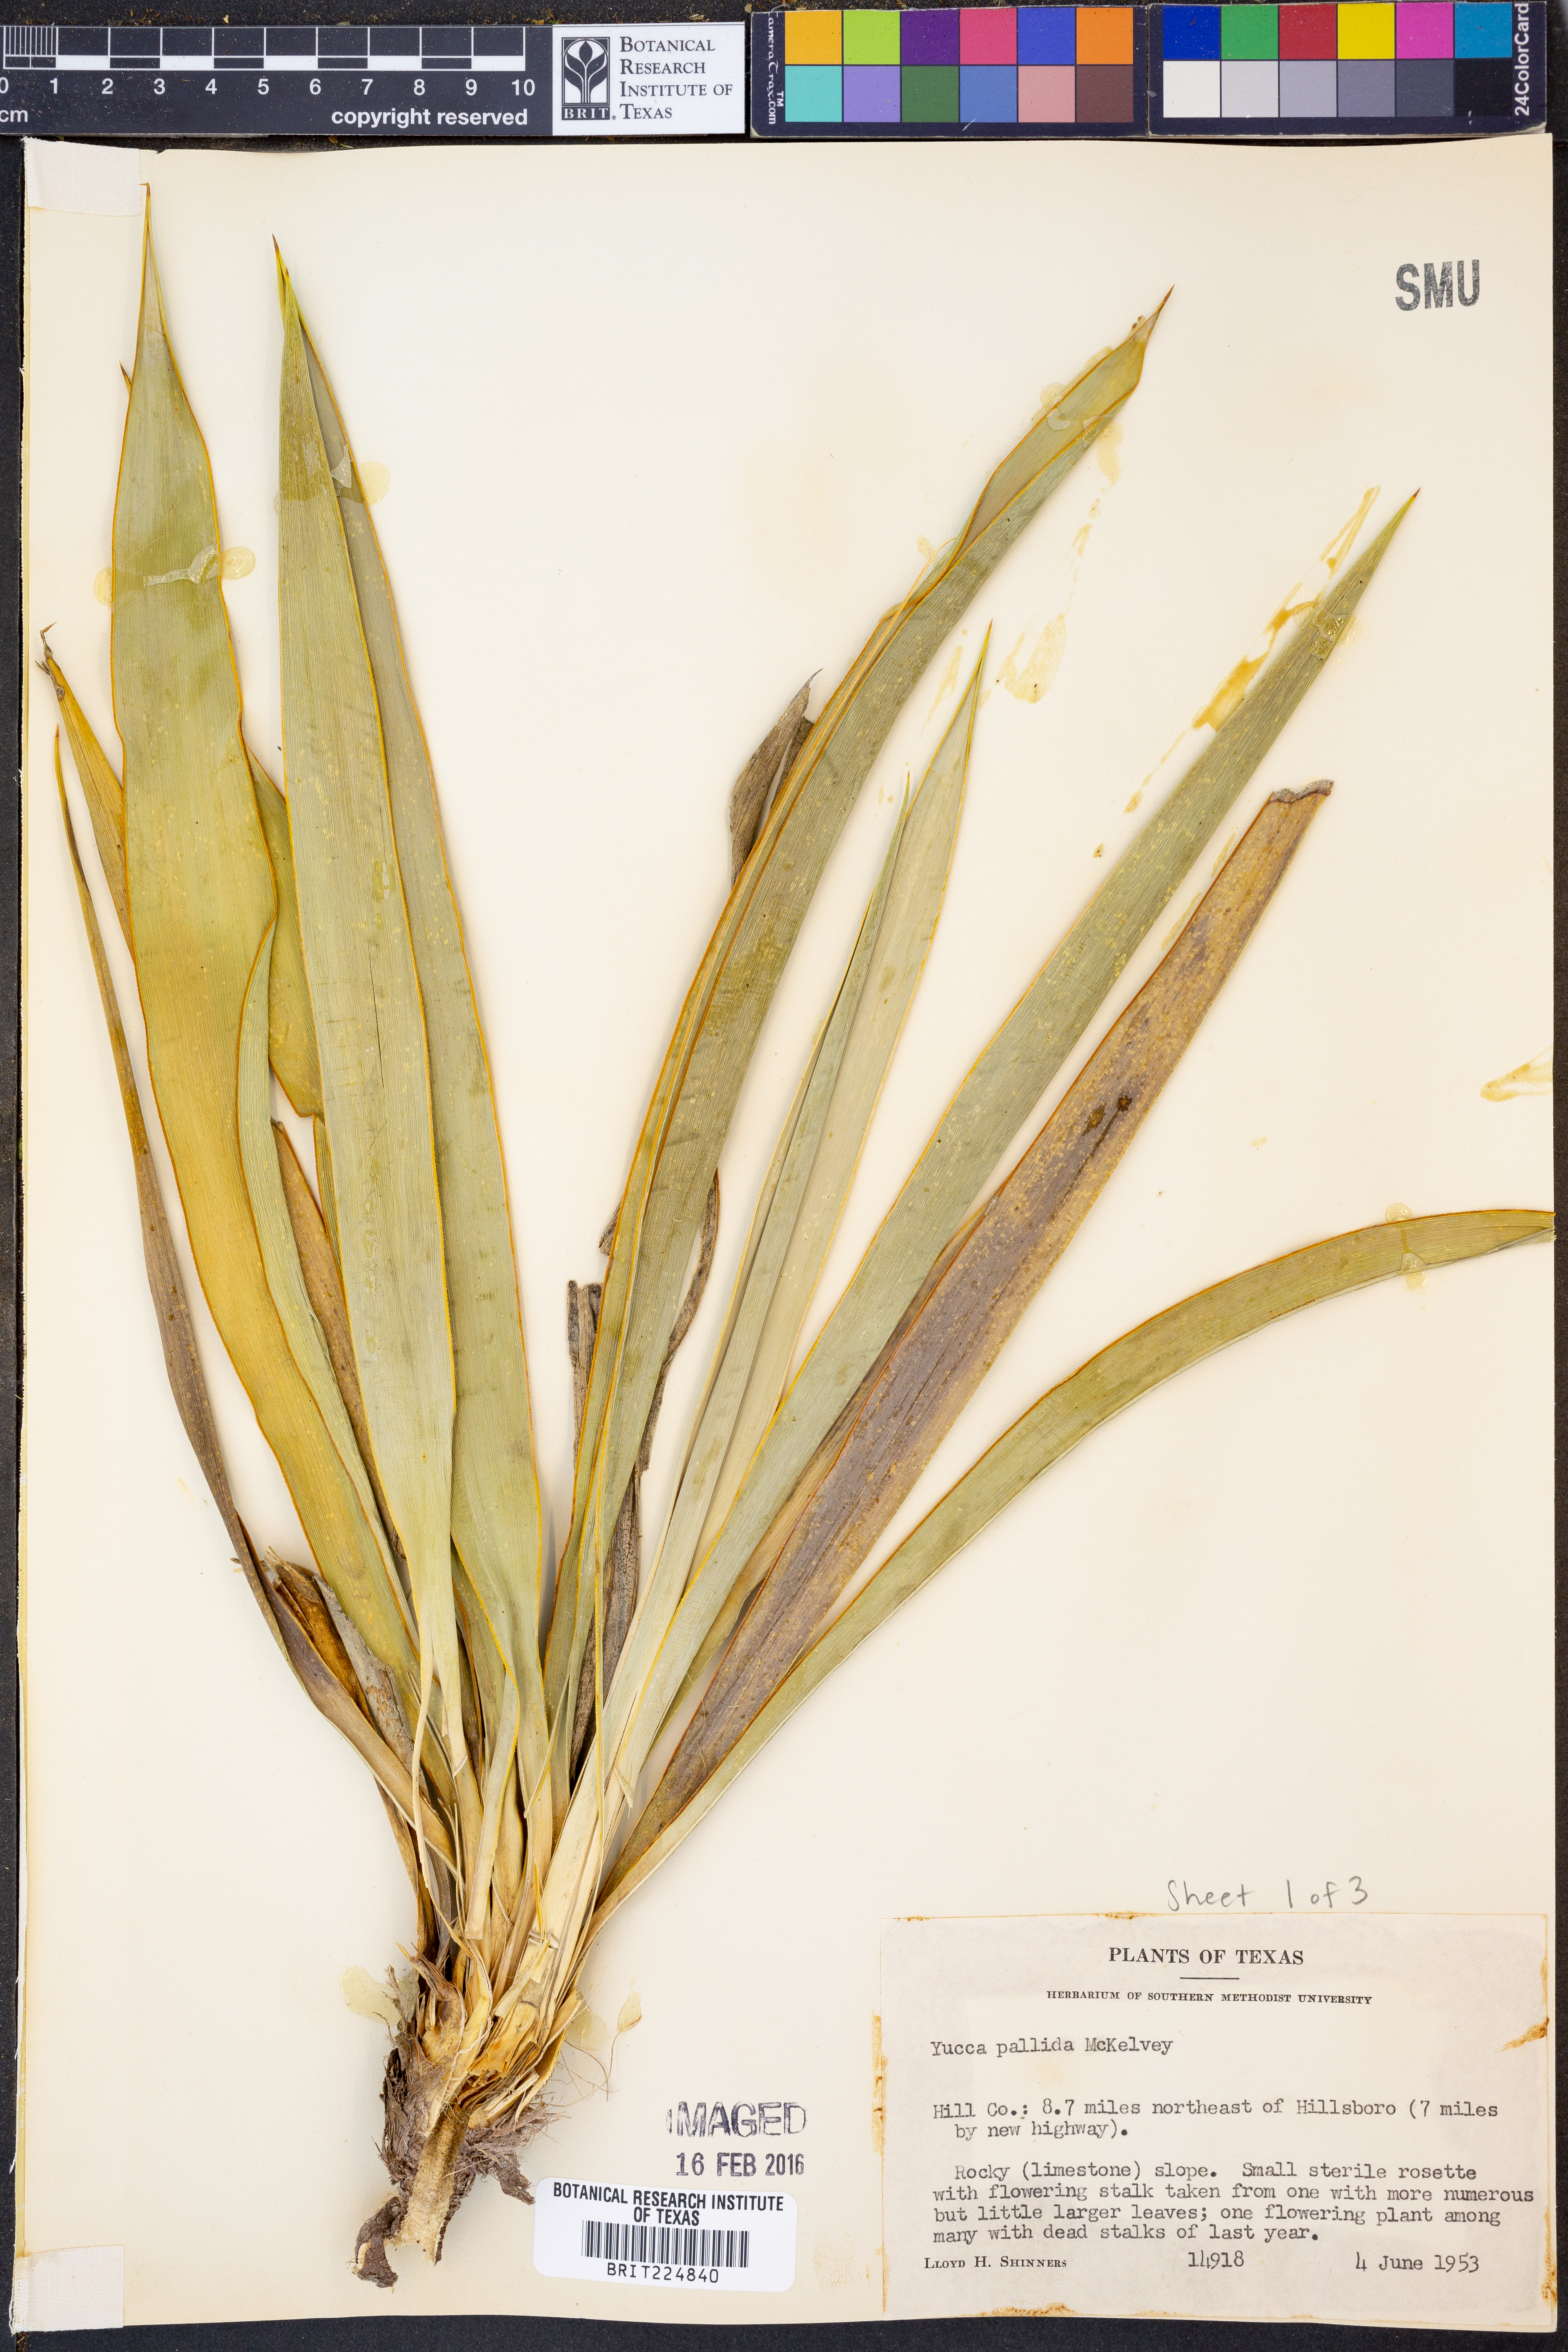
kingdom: Plantae
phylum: Tracheophyta
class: Liliopsida
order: Asparagales
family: Asparagaceae
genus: Yucca
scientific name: Yucca pallida
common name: Pale leaf yucca
